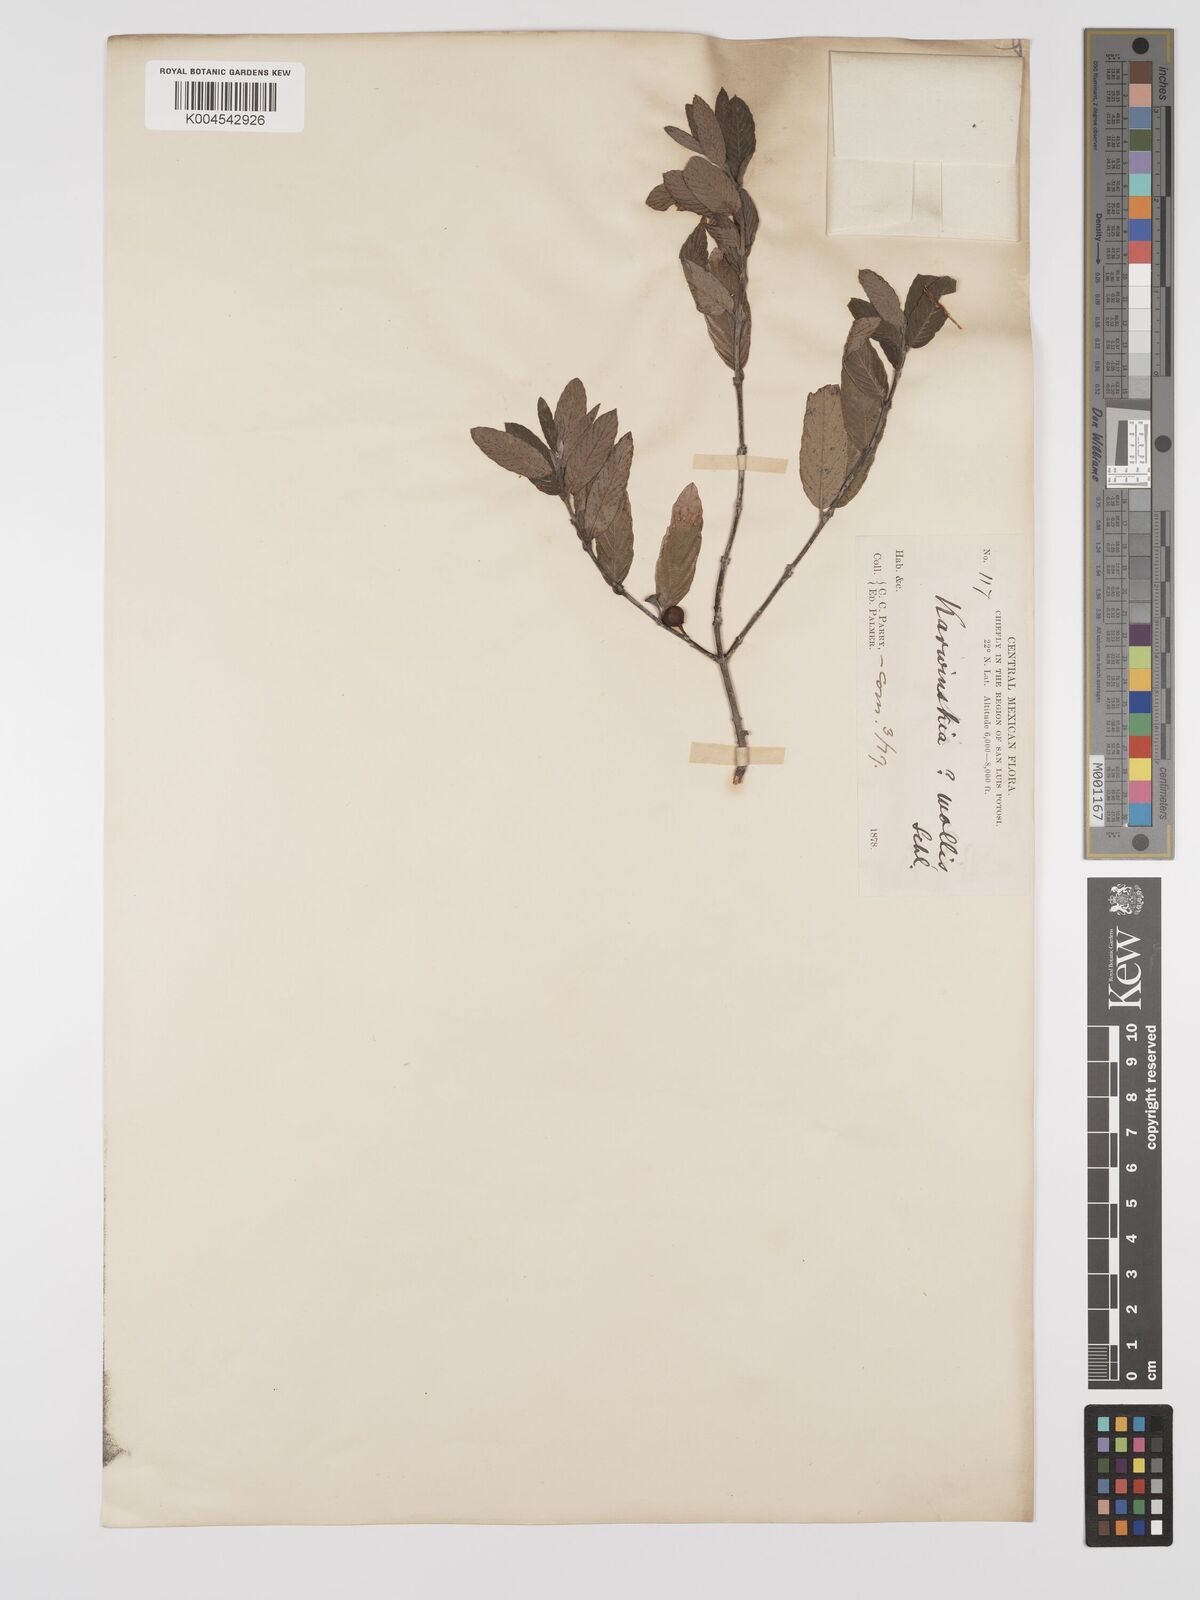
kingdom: Plantae
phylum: Tracheophyta
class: Magnoliopsida
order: Rosales
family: Rhamnaceae
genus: Karwinskia
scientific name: Karwinskia mollis
